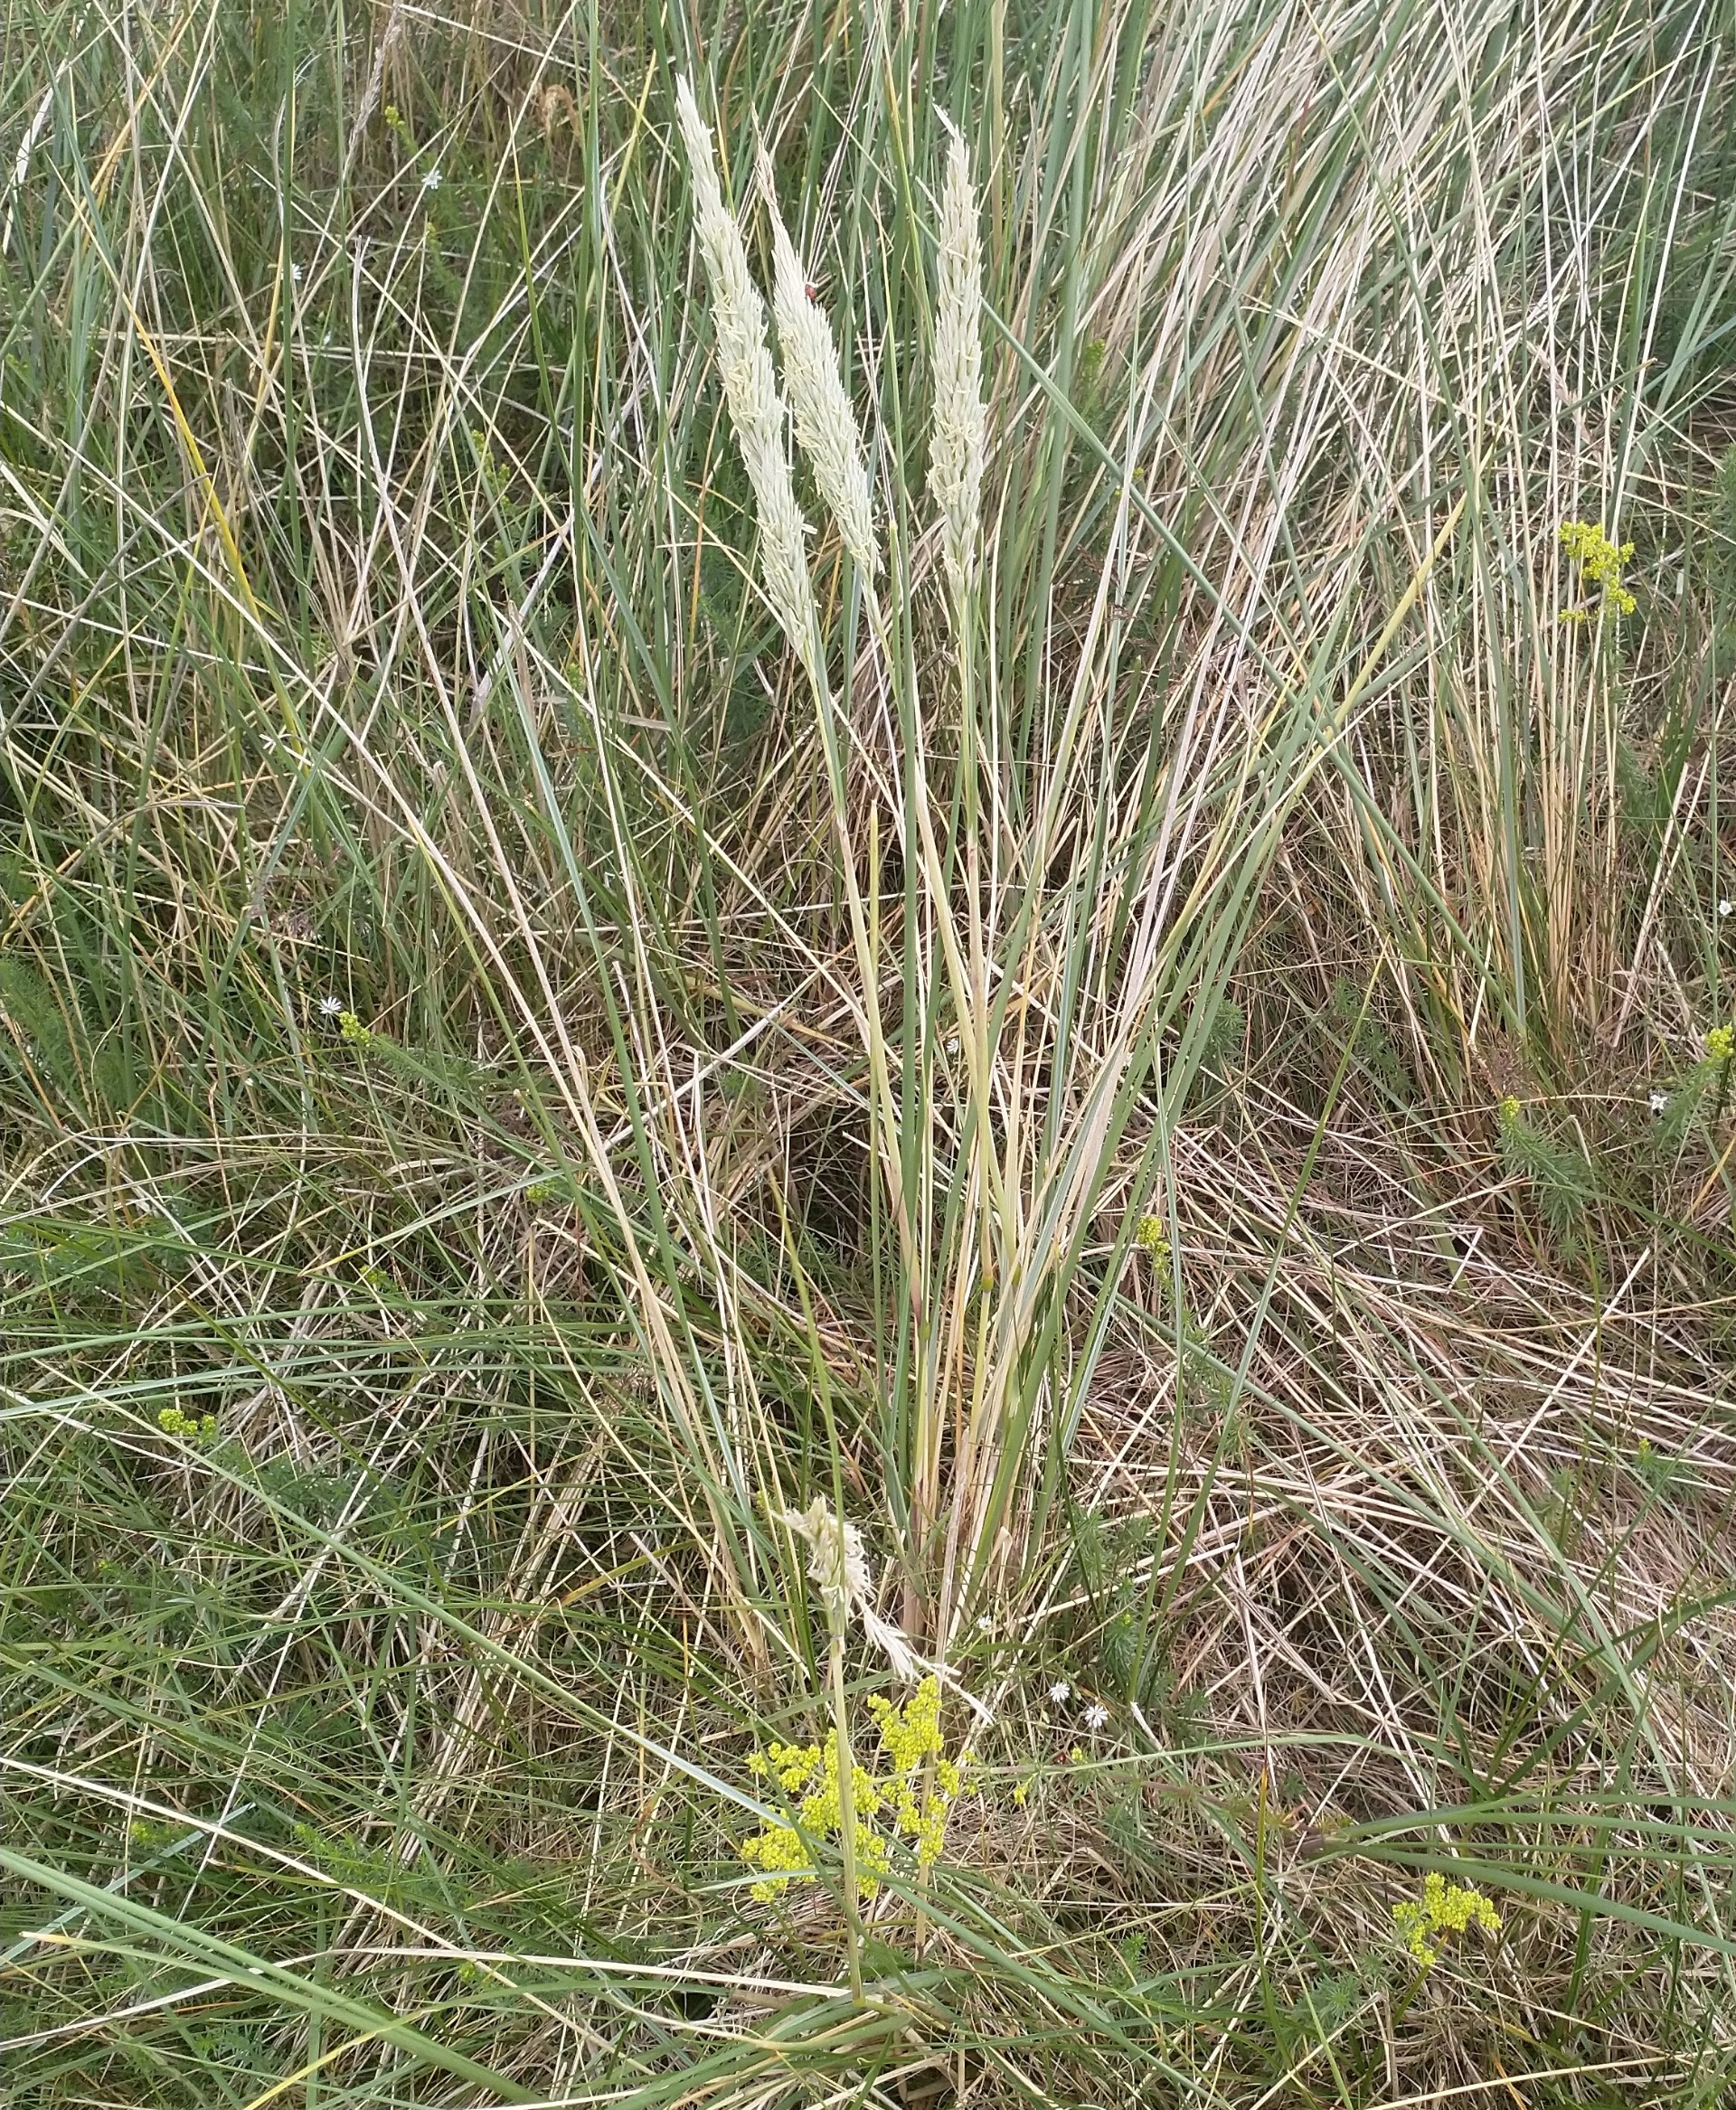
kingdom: Plantae
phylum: Tracheophyta
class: Liliopsida
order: Poales
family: Poaceae
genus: Calamagrostis
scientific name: Calamagrostis arenaria
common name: Sand-hjælme
